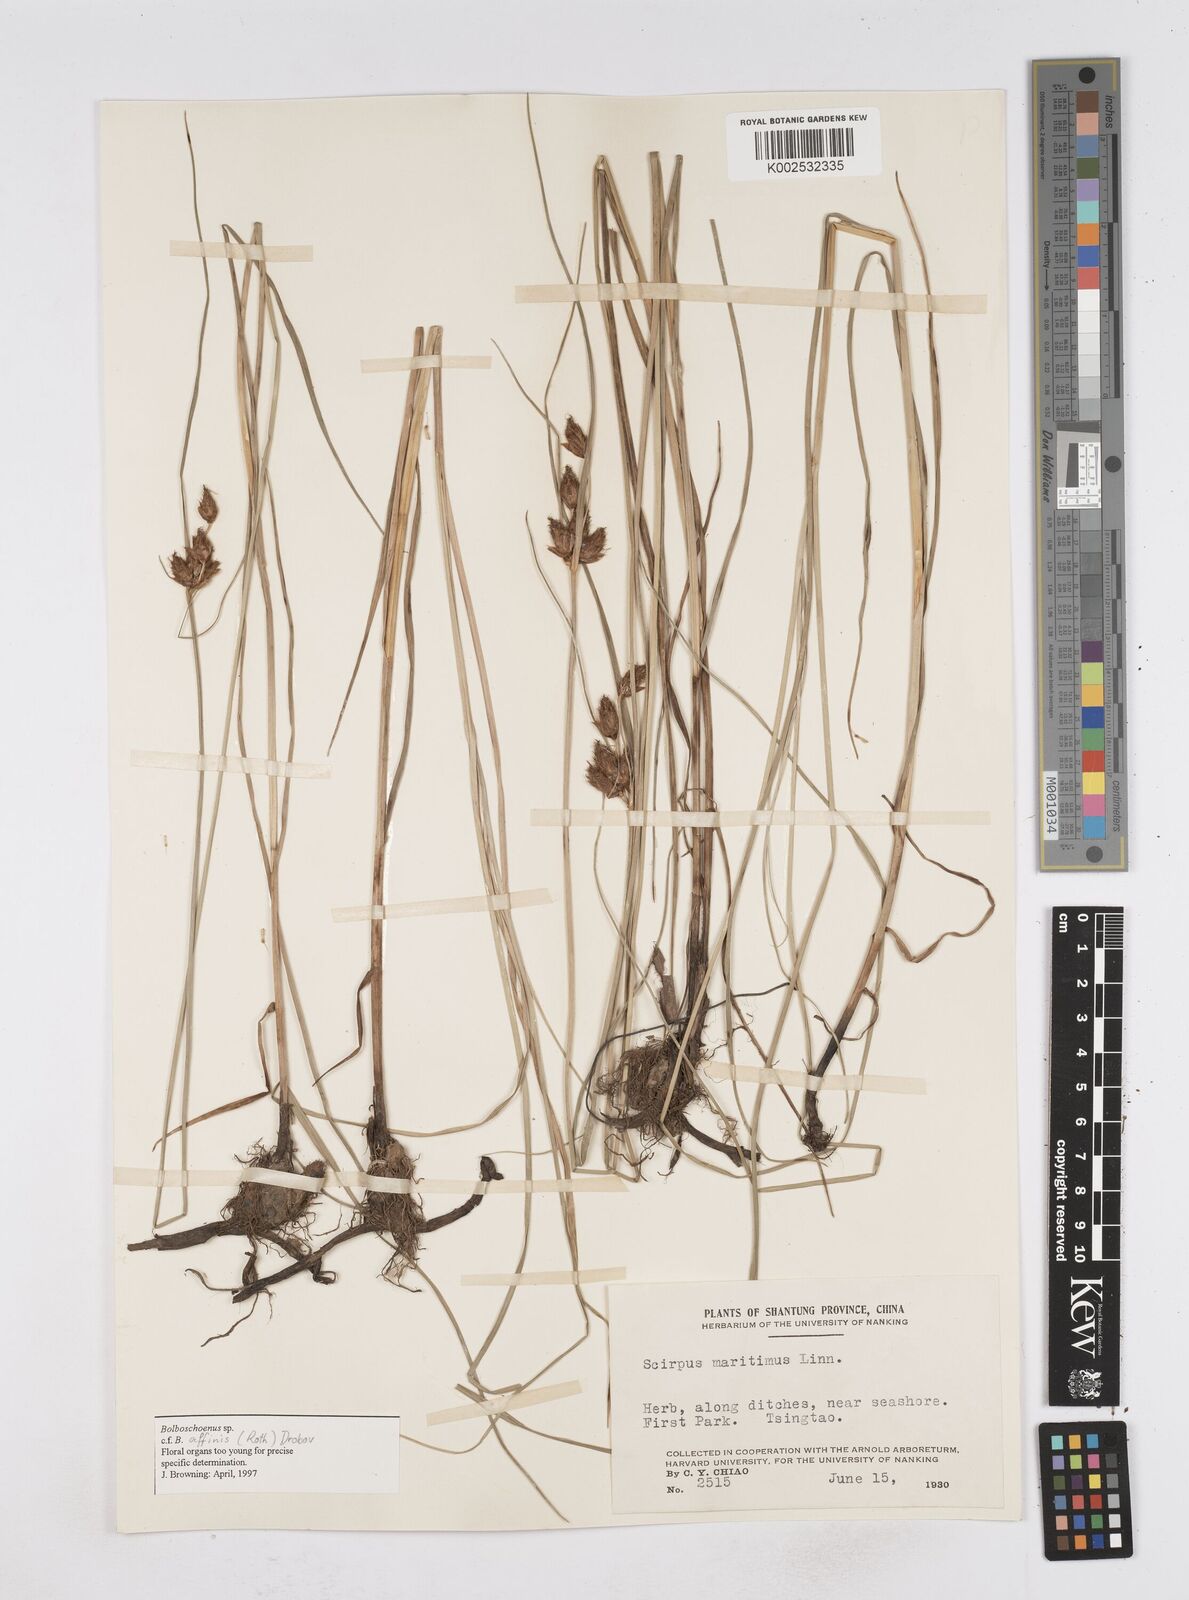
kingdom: Plantae
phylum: Tracheophyta
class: Liliopsida
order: Poales
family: Cyperaceae
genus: Bolboschoenus
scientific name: Bolboschoenus maritimus
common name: Sea club-rush
